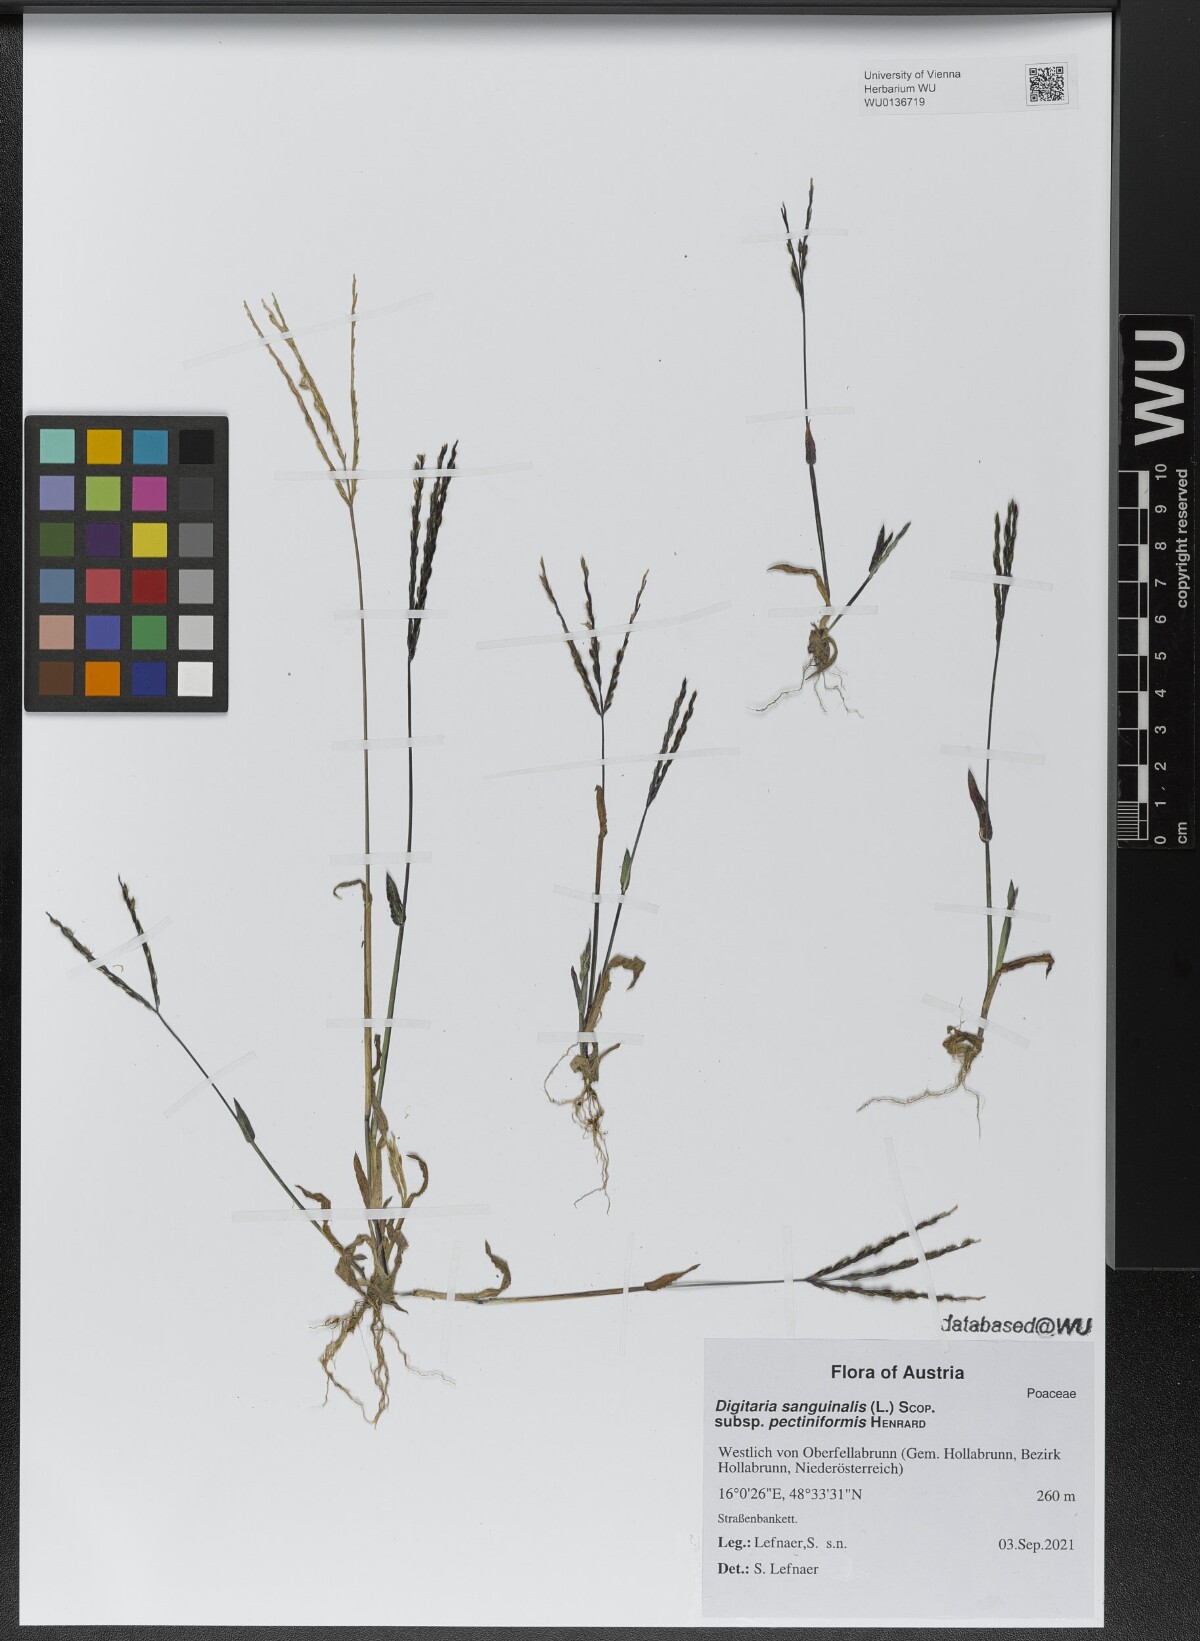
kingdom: Plantae
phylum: Tracheophyta
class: Liliopsida
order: Poales
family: Poaceae
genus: Digitaria
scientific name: Digitaria sanguinalis
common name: Hairy crabgrass
